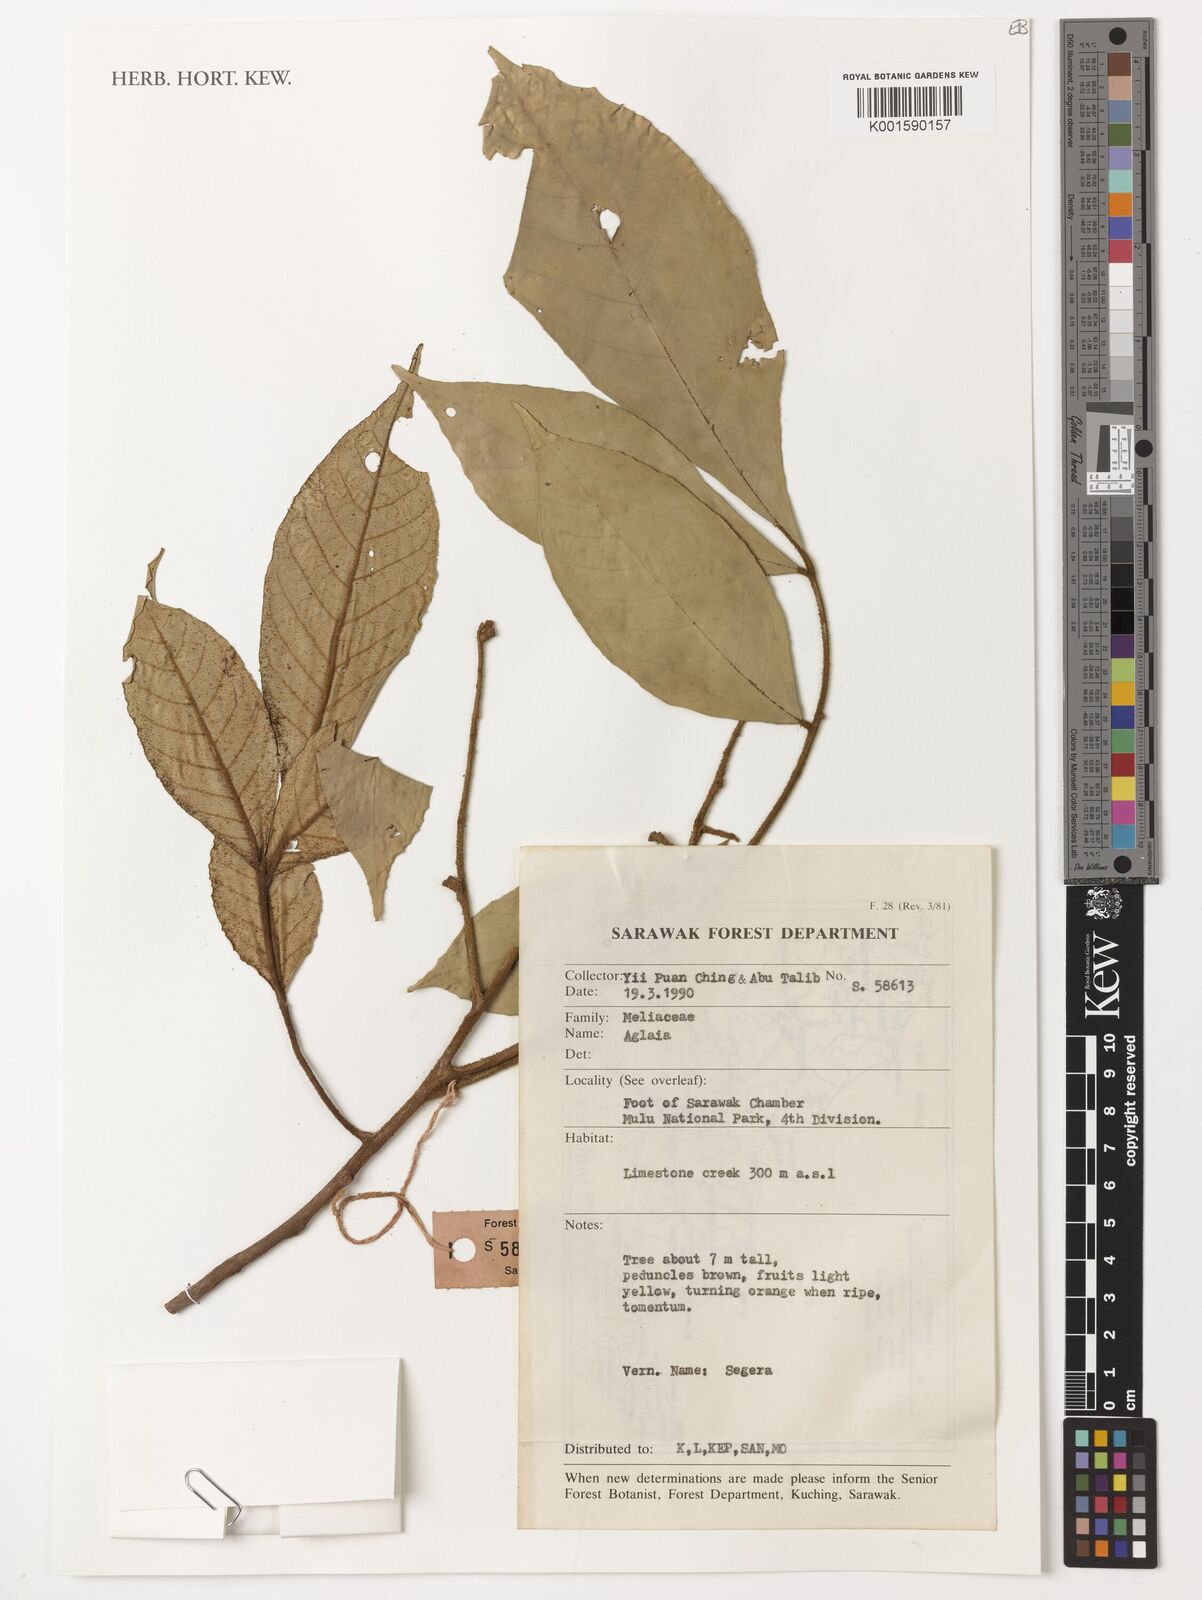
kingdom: Plantae
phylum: Tracheophyta
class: Magnoliopsida
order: Sapindales
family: Meliaceae
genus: Aglaia
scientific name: Aglaia
